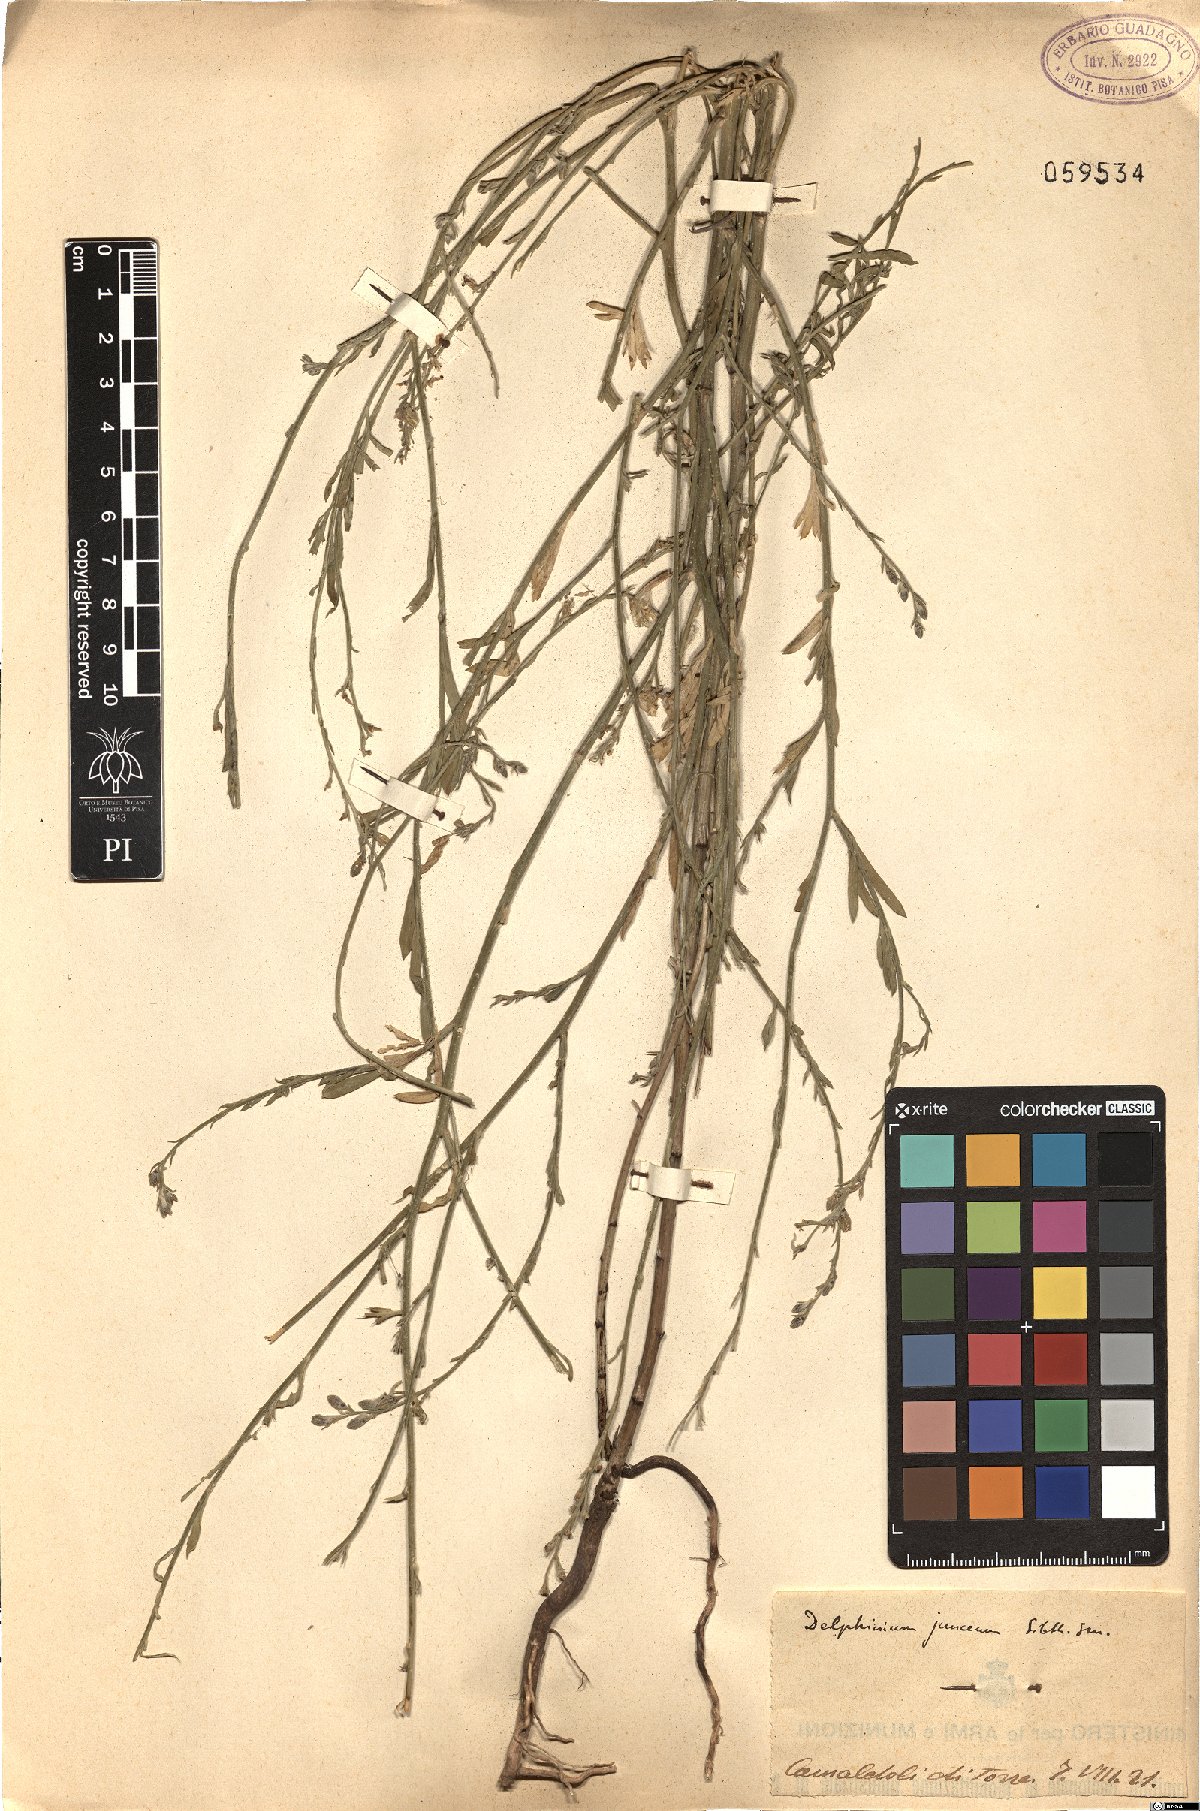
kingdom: Plantae
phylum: Tracheophyta
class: Magnoliopsida
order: Ranunculales
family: Ranunculaceae
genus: Delphinium
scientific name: Delphinium peregrinum
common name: Violet larkspur
